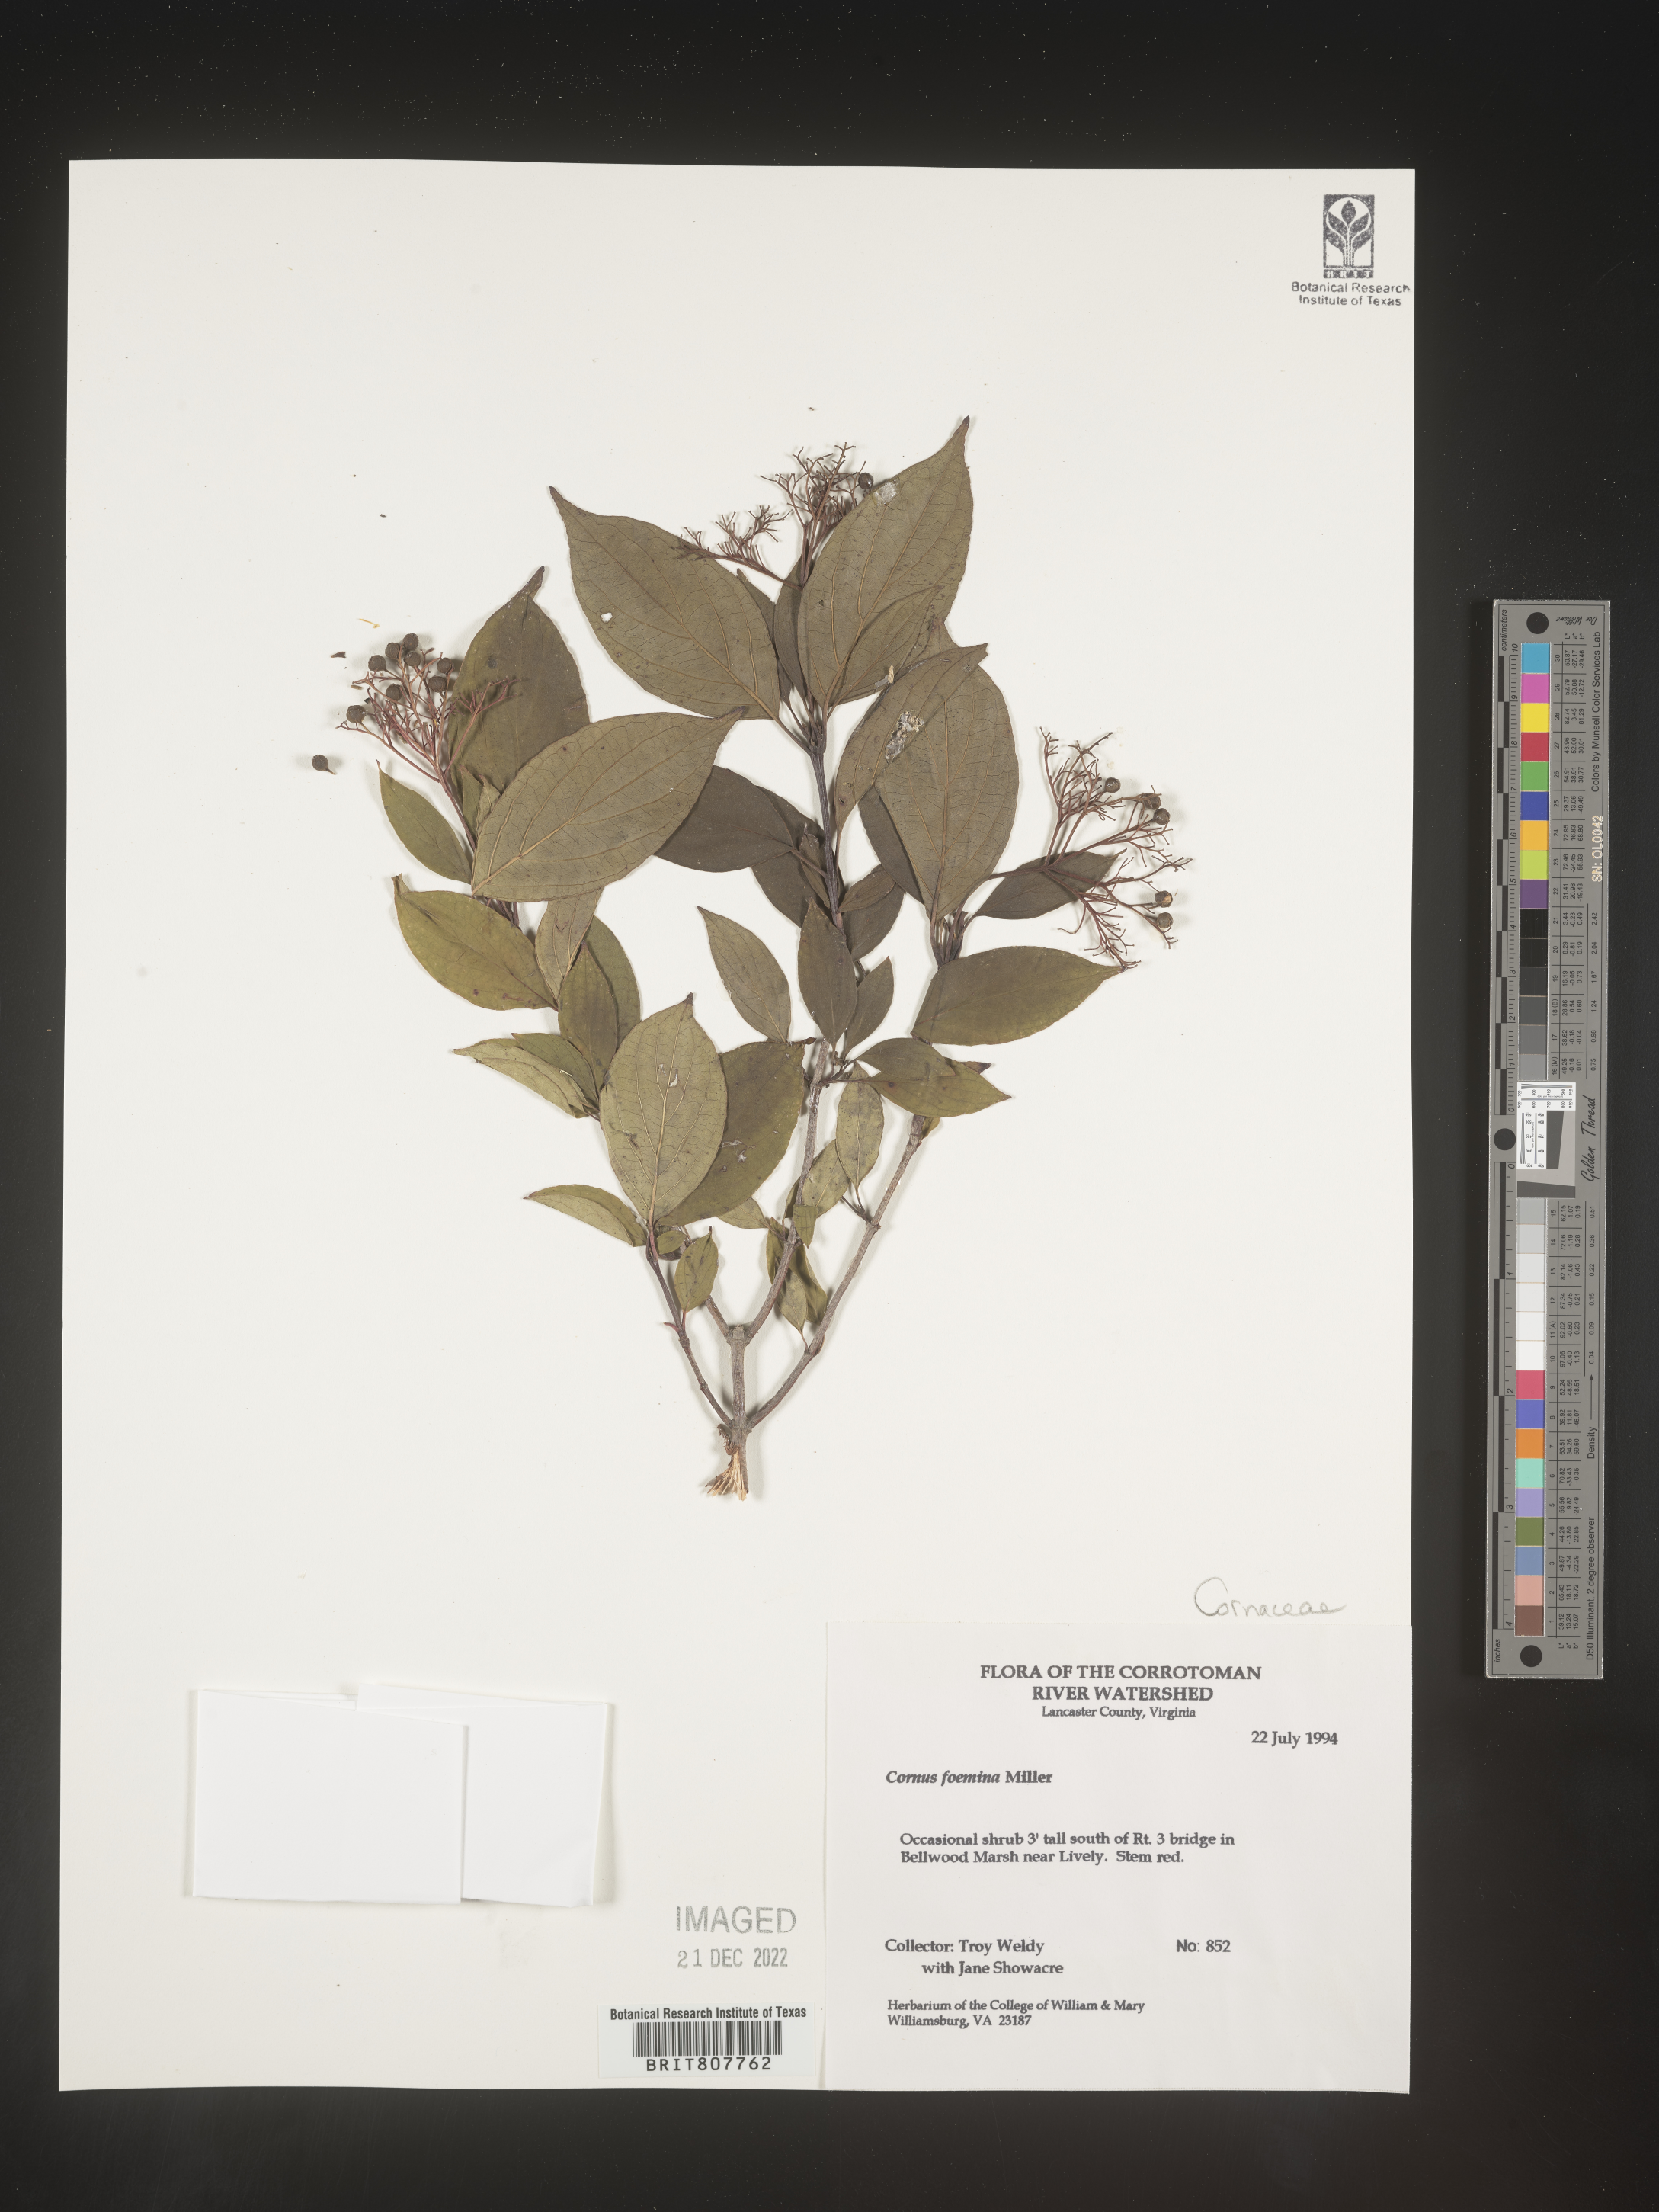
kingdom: Plantae
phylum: Tracheophyta
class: Magnoliopsida
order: Cornales
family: Cornaceae
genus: Cornus
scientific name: Cornus foemina
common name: Swamp dogwood
